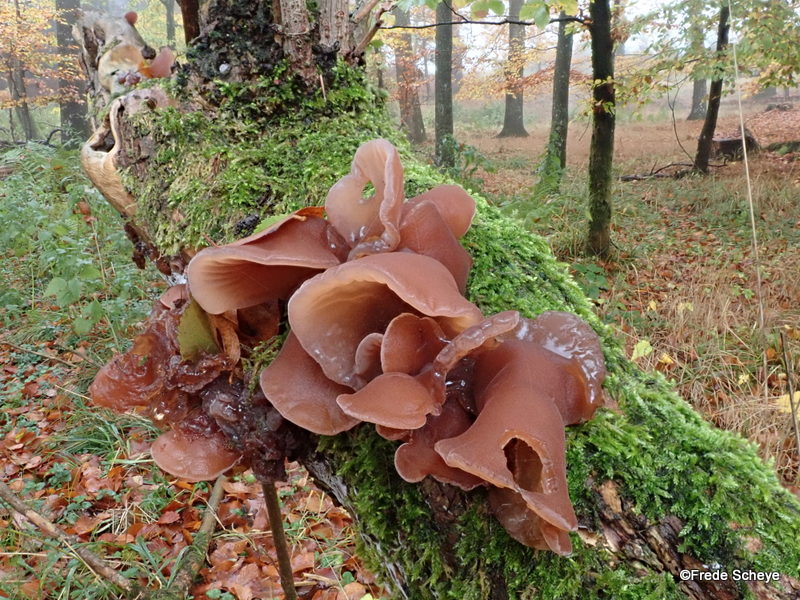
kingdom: Fungi
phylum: Basidiomycota
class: Agaricomycetes
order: Auriculariales
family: Auriculariaceae
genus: Auricularia
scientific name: Auricularia auricula-judae
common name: almindelig judasøre
